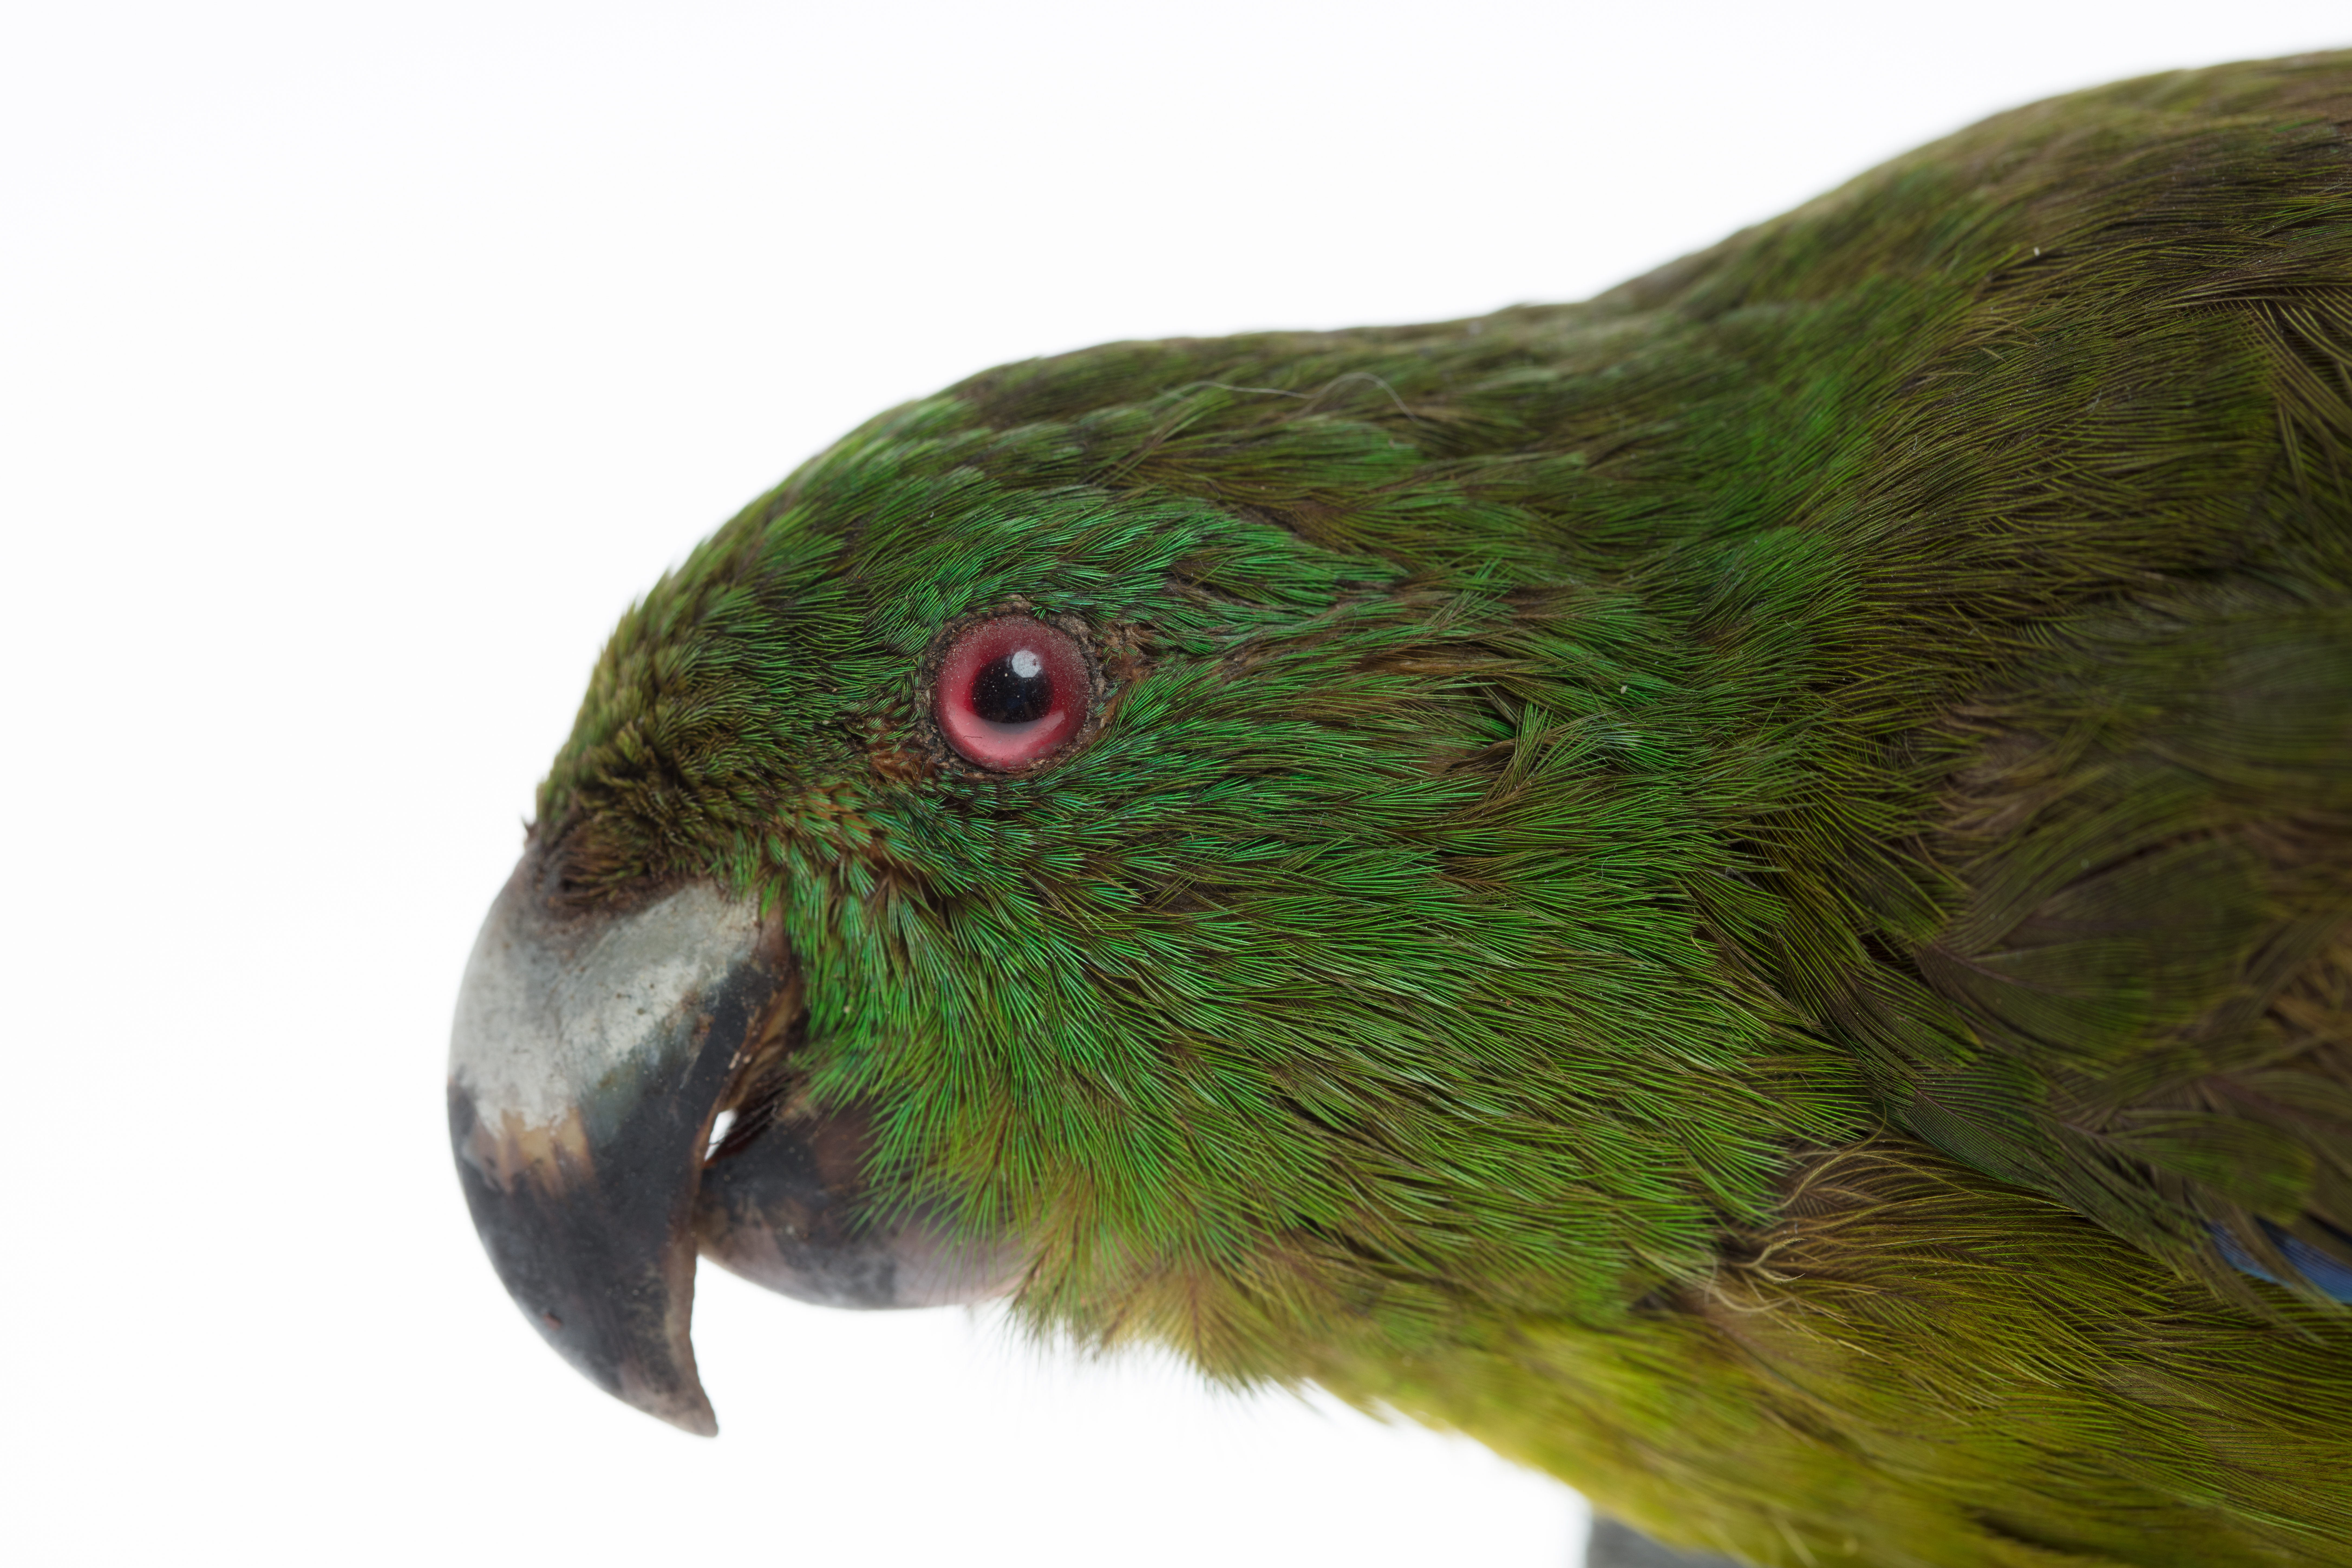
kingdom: Animalia
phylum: Chordata
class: Aves
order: Psittaciformes
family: Psittacidae
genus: Cyanoramphus
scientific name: Cyanoramphus unicolor
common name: Antipodes parakeet
